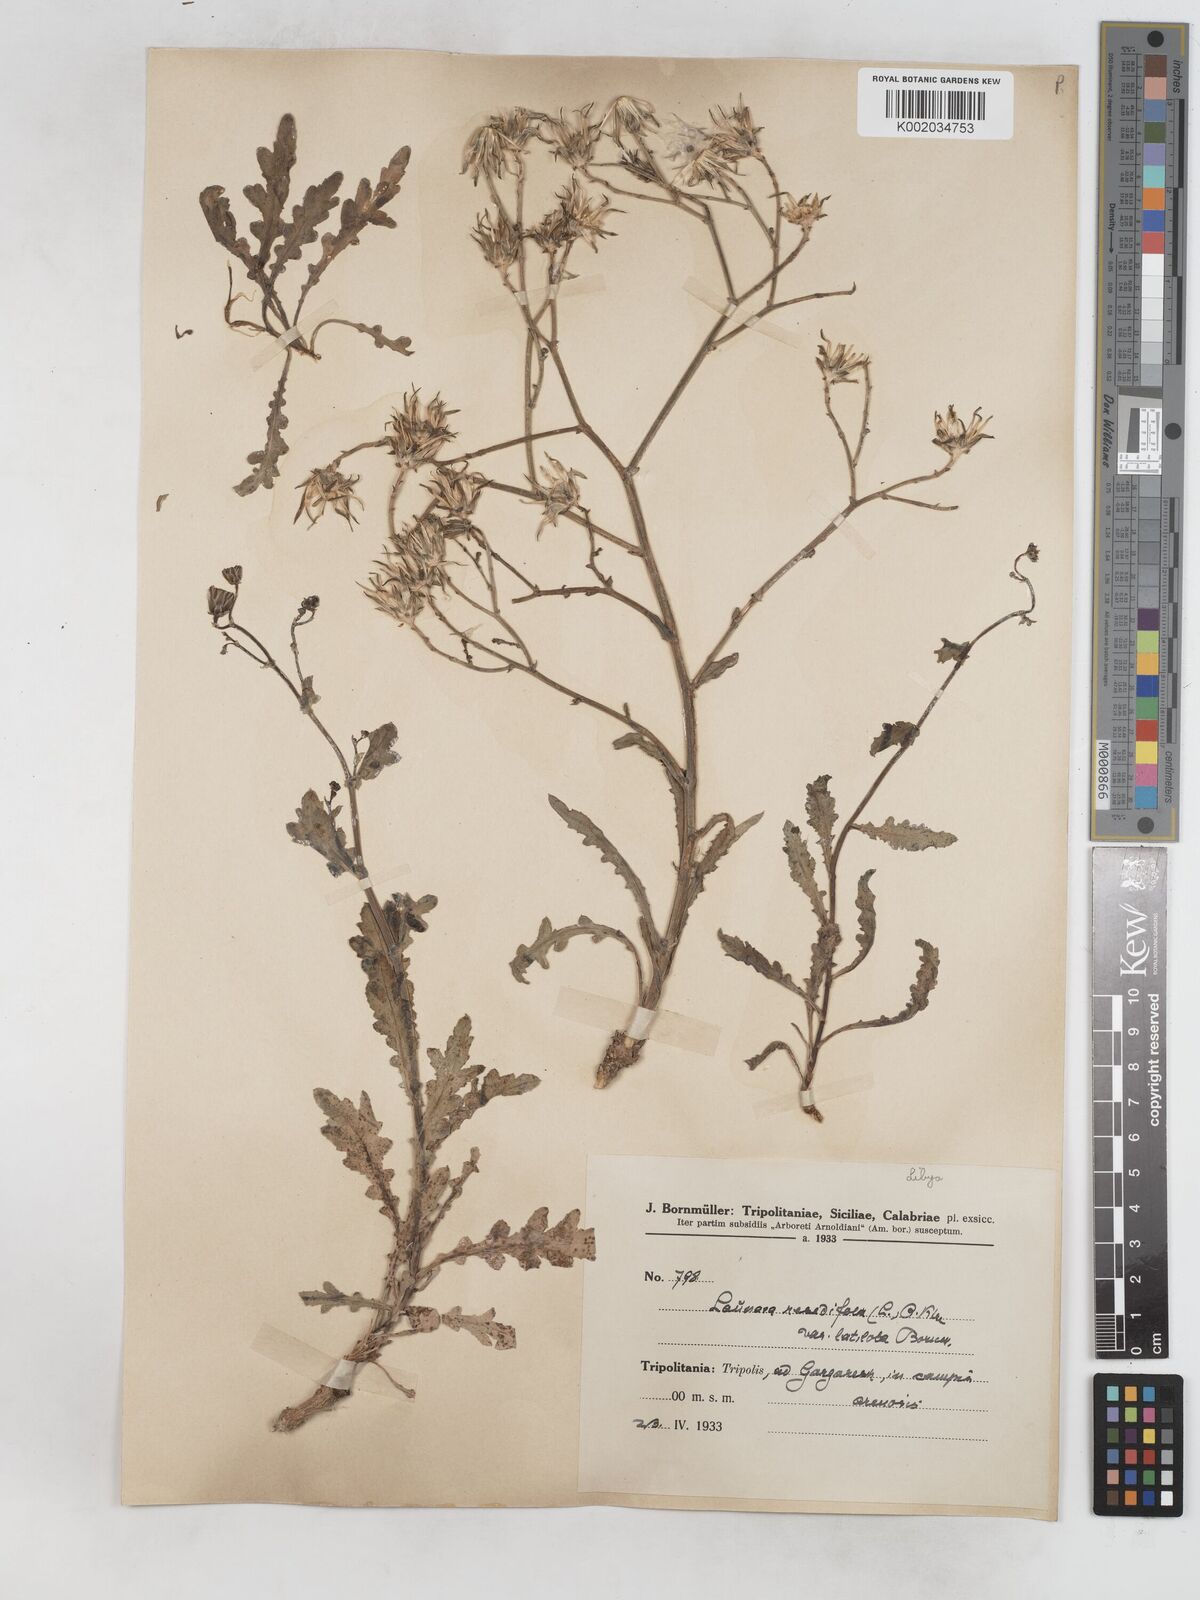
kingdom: Plantae
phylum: Tracheophyta
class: Magnoliopsida
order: Asterales
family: Asteraceae
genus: Launaea
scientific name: Launaea fragilis
